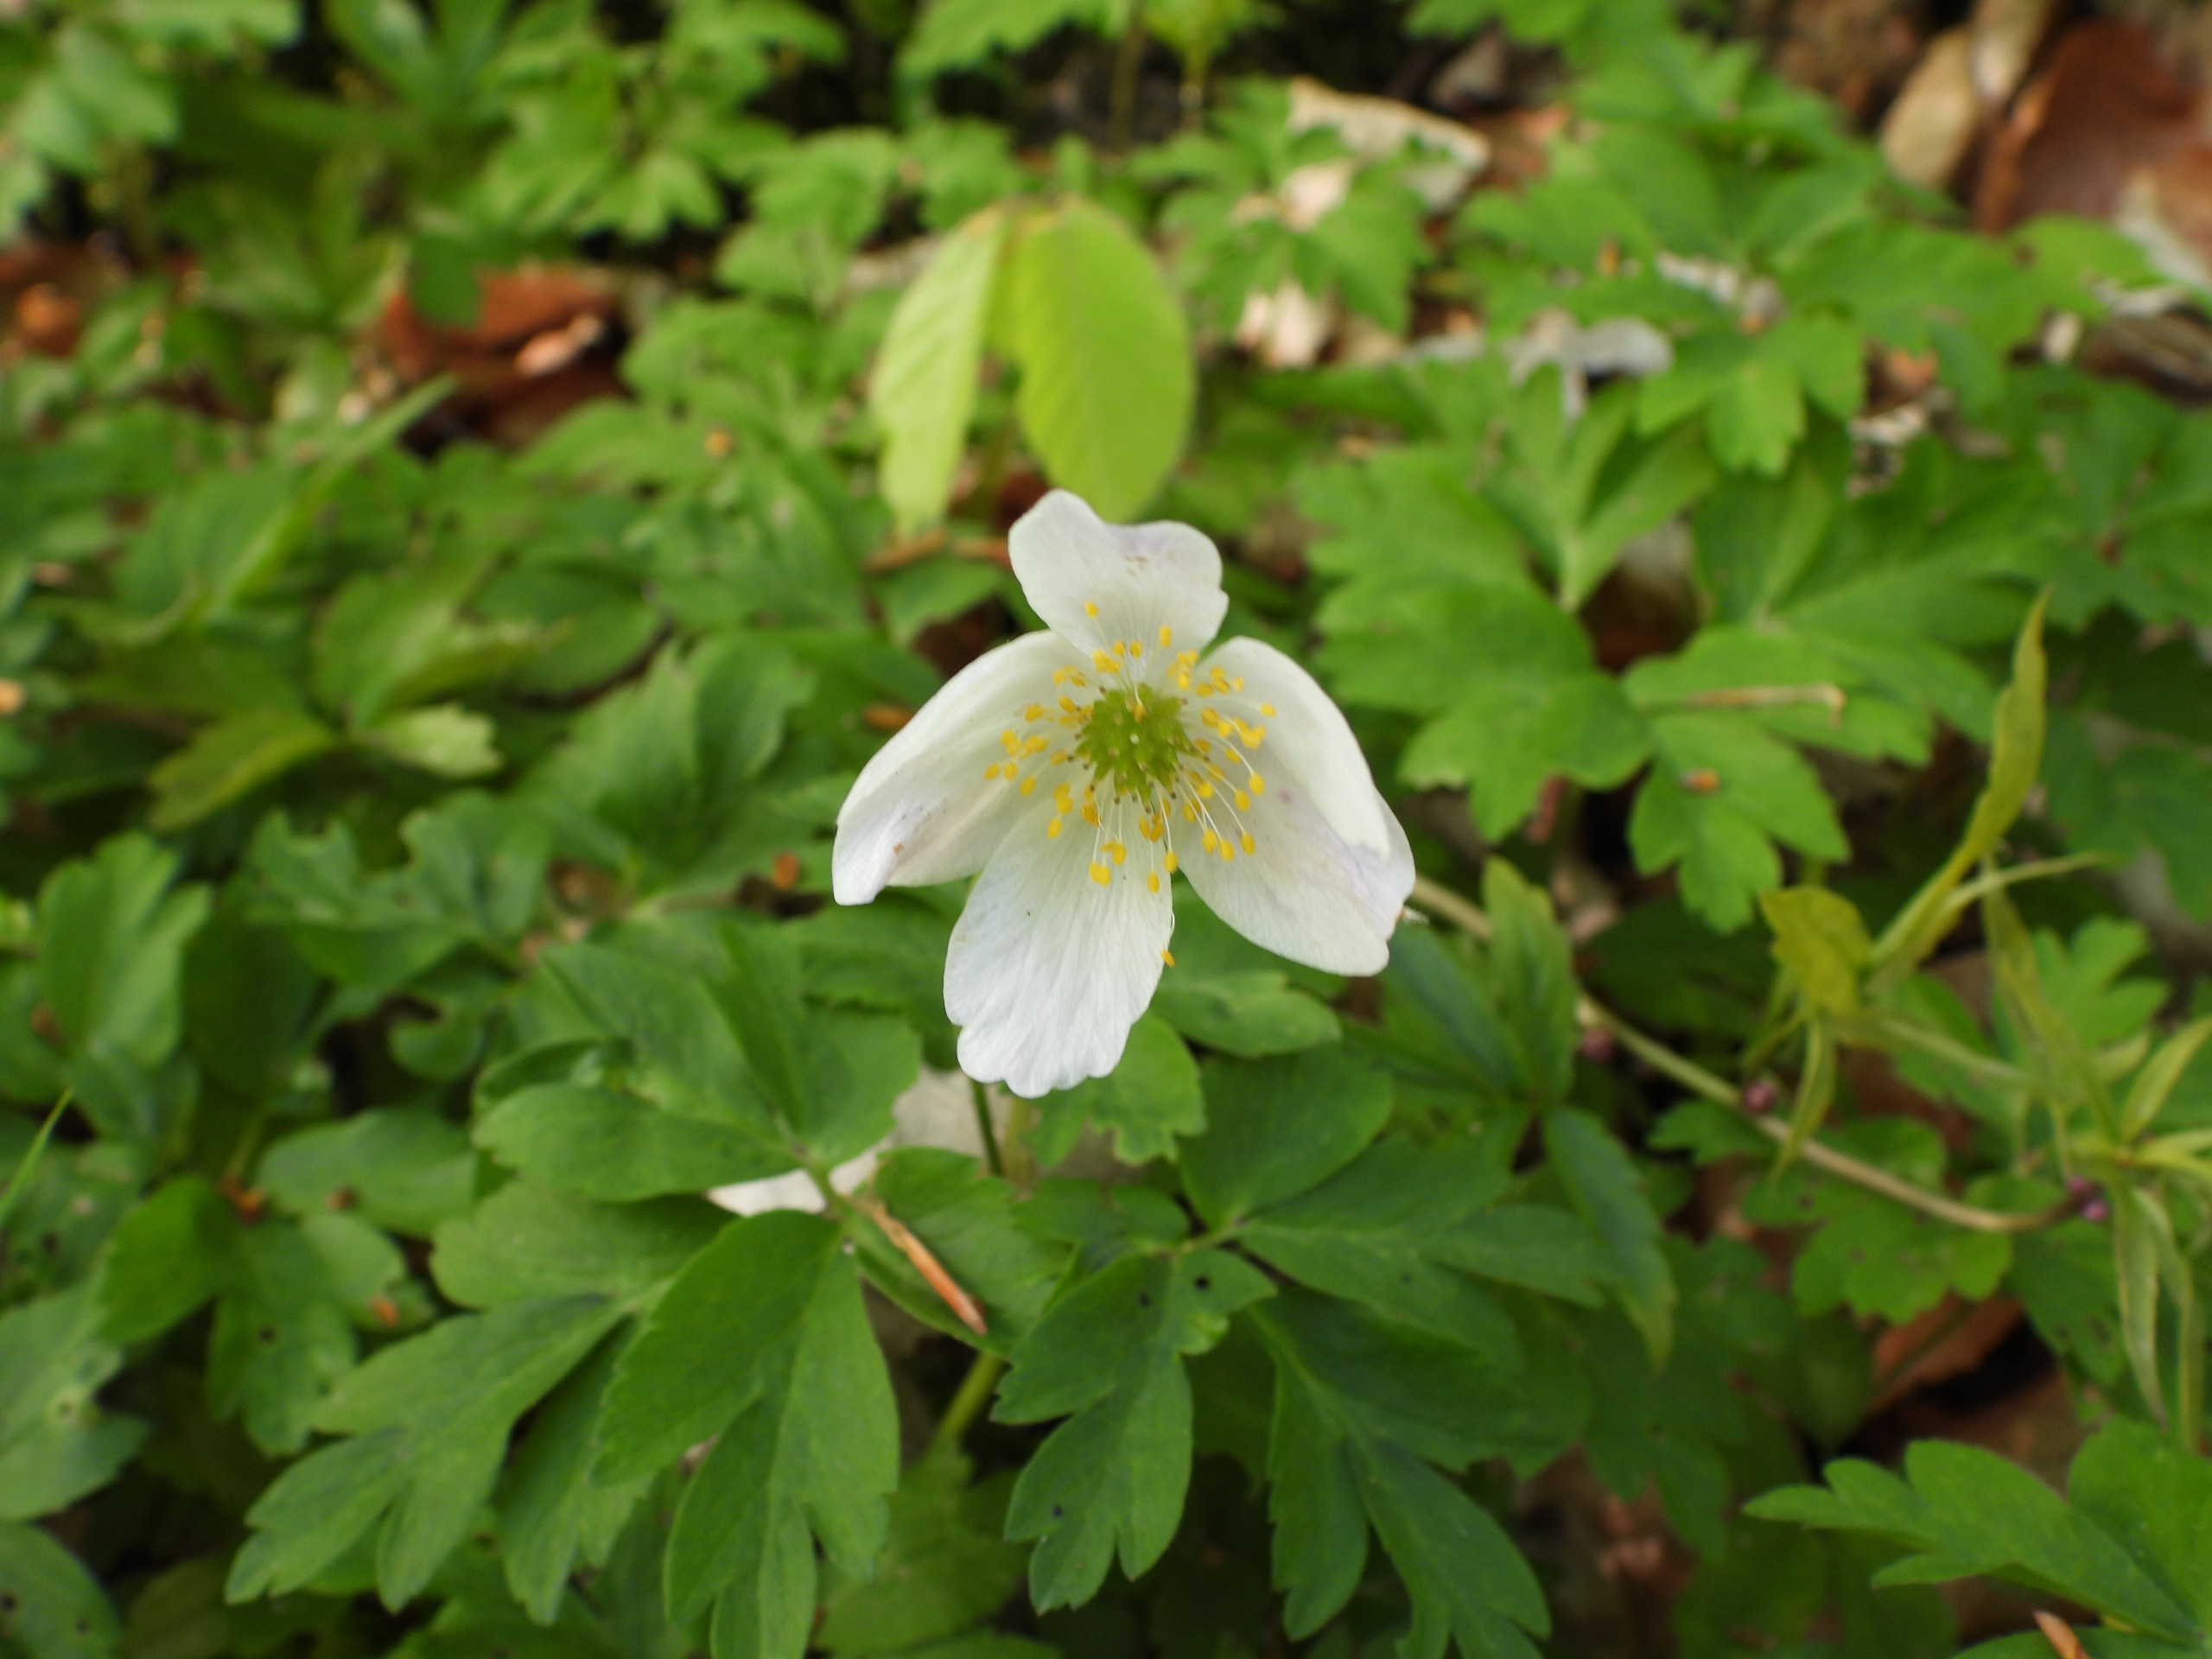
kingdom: Plantae
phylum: Tracheophyta
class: Magnoliopsida
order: Ranunculales
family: Ranunculaceae
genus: Anemone
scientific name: Anemone nemorosa
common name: Hvid anemone
